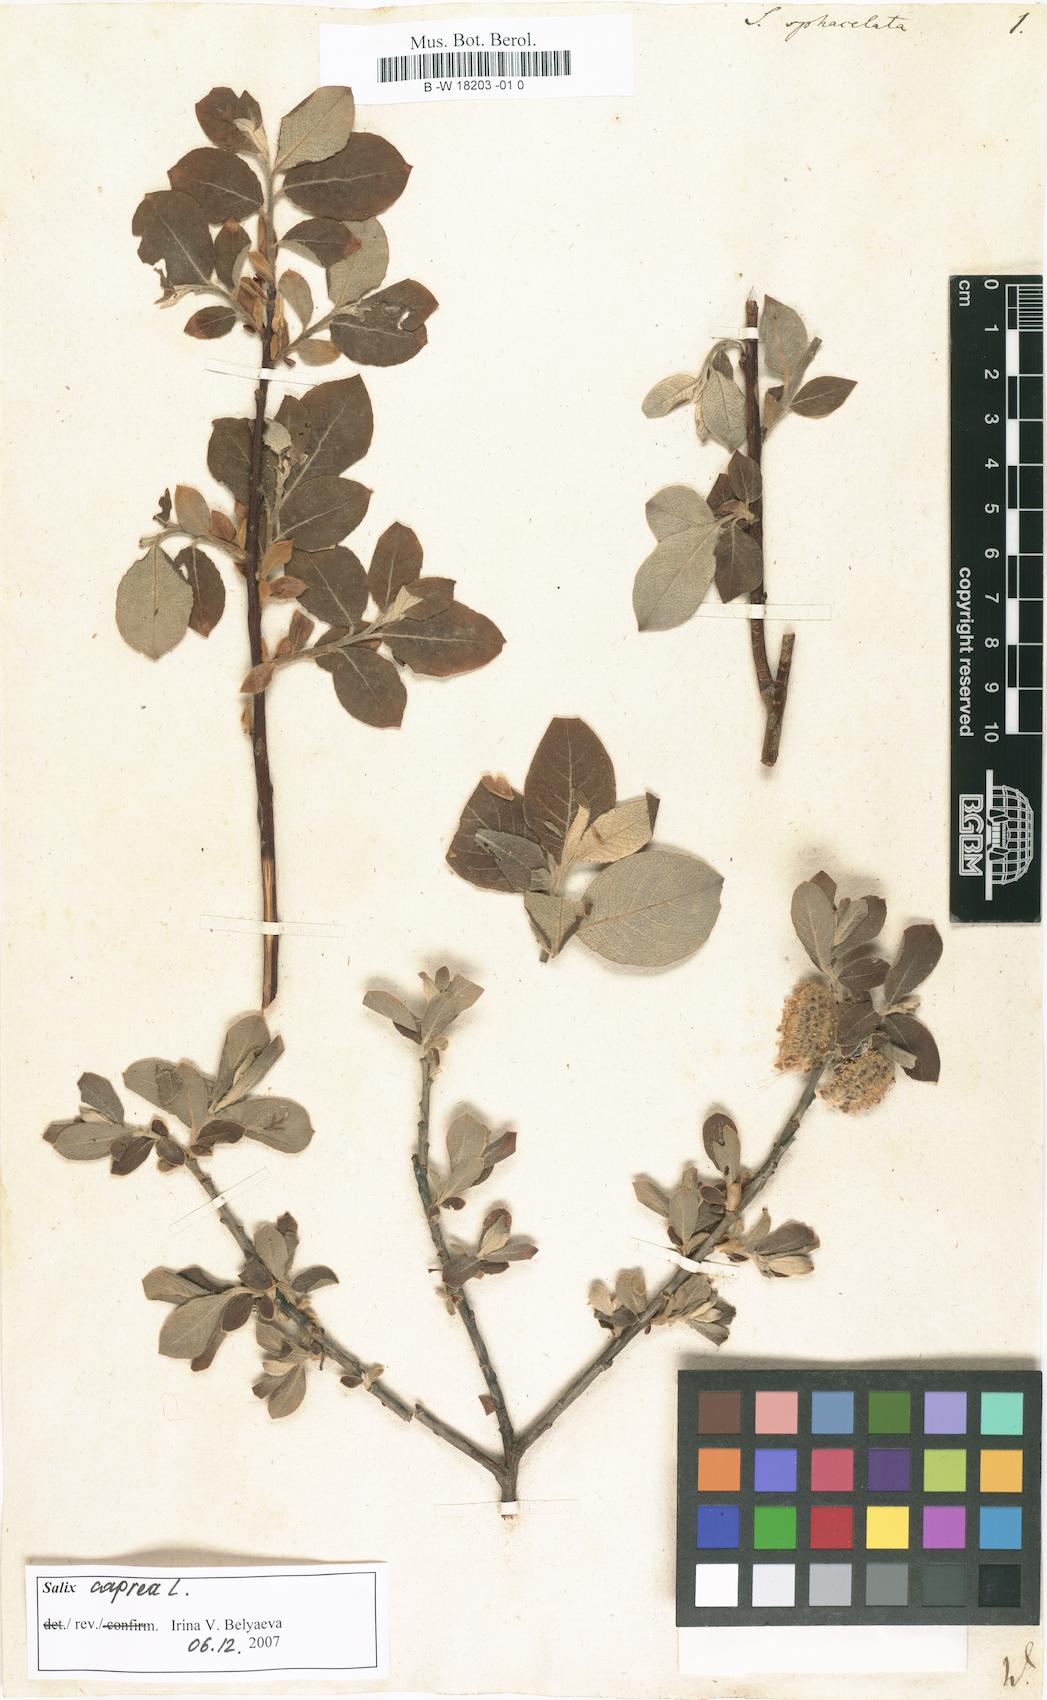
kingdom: Plantae
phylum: Tracheophyta
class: Magnoliopsida
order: Malpighiales
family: Salicaceae
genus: Salix
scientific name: Salix
